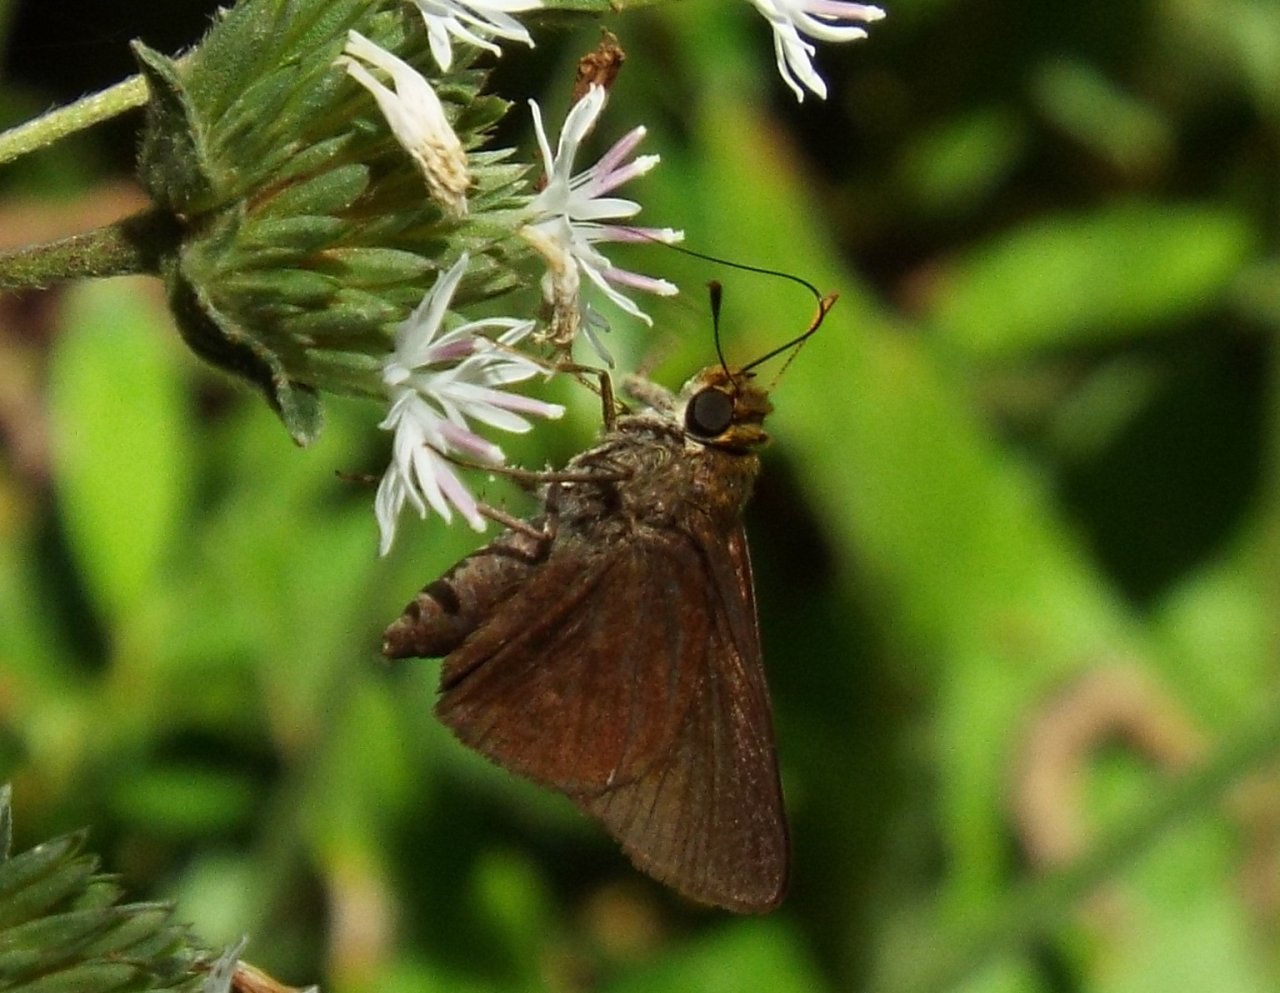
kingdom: Animalia
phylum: Arthropoda
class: Insecta
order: Lepidoptera
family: Hesperiidae
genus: Euphyes
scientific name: Euphyes vestris
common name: Dun Skipper
